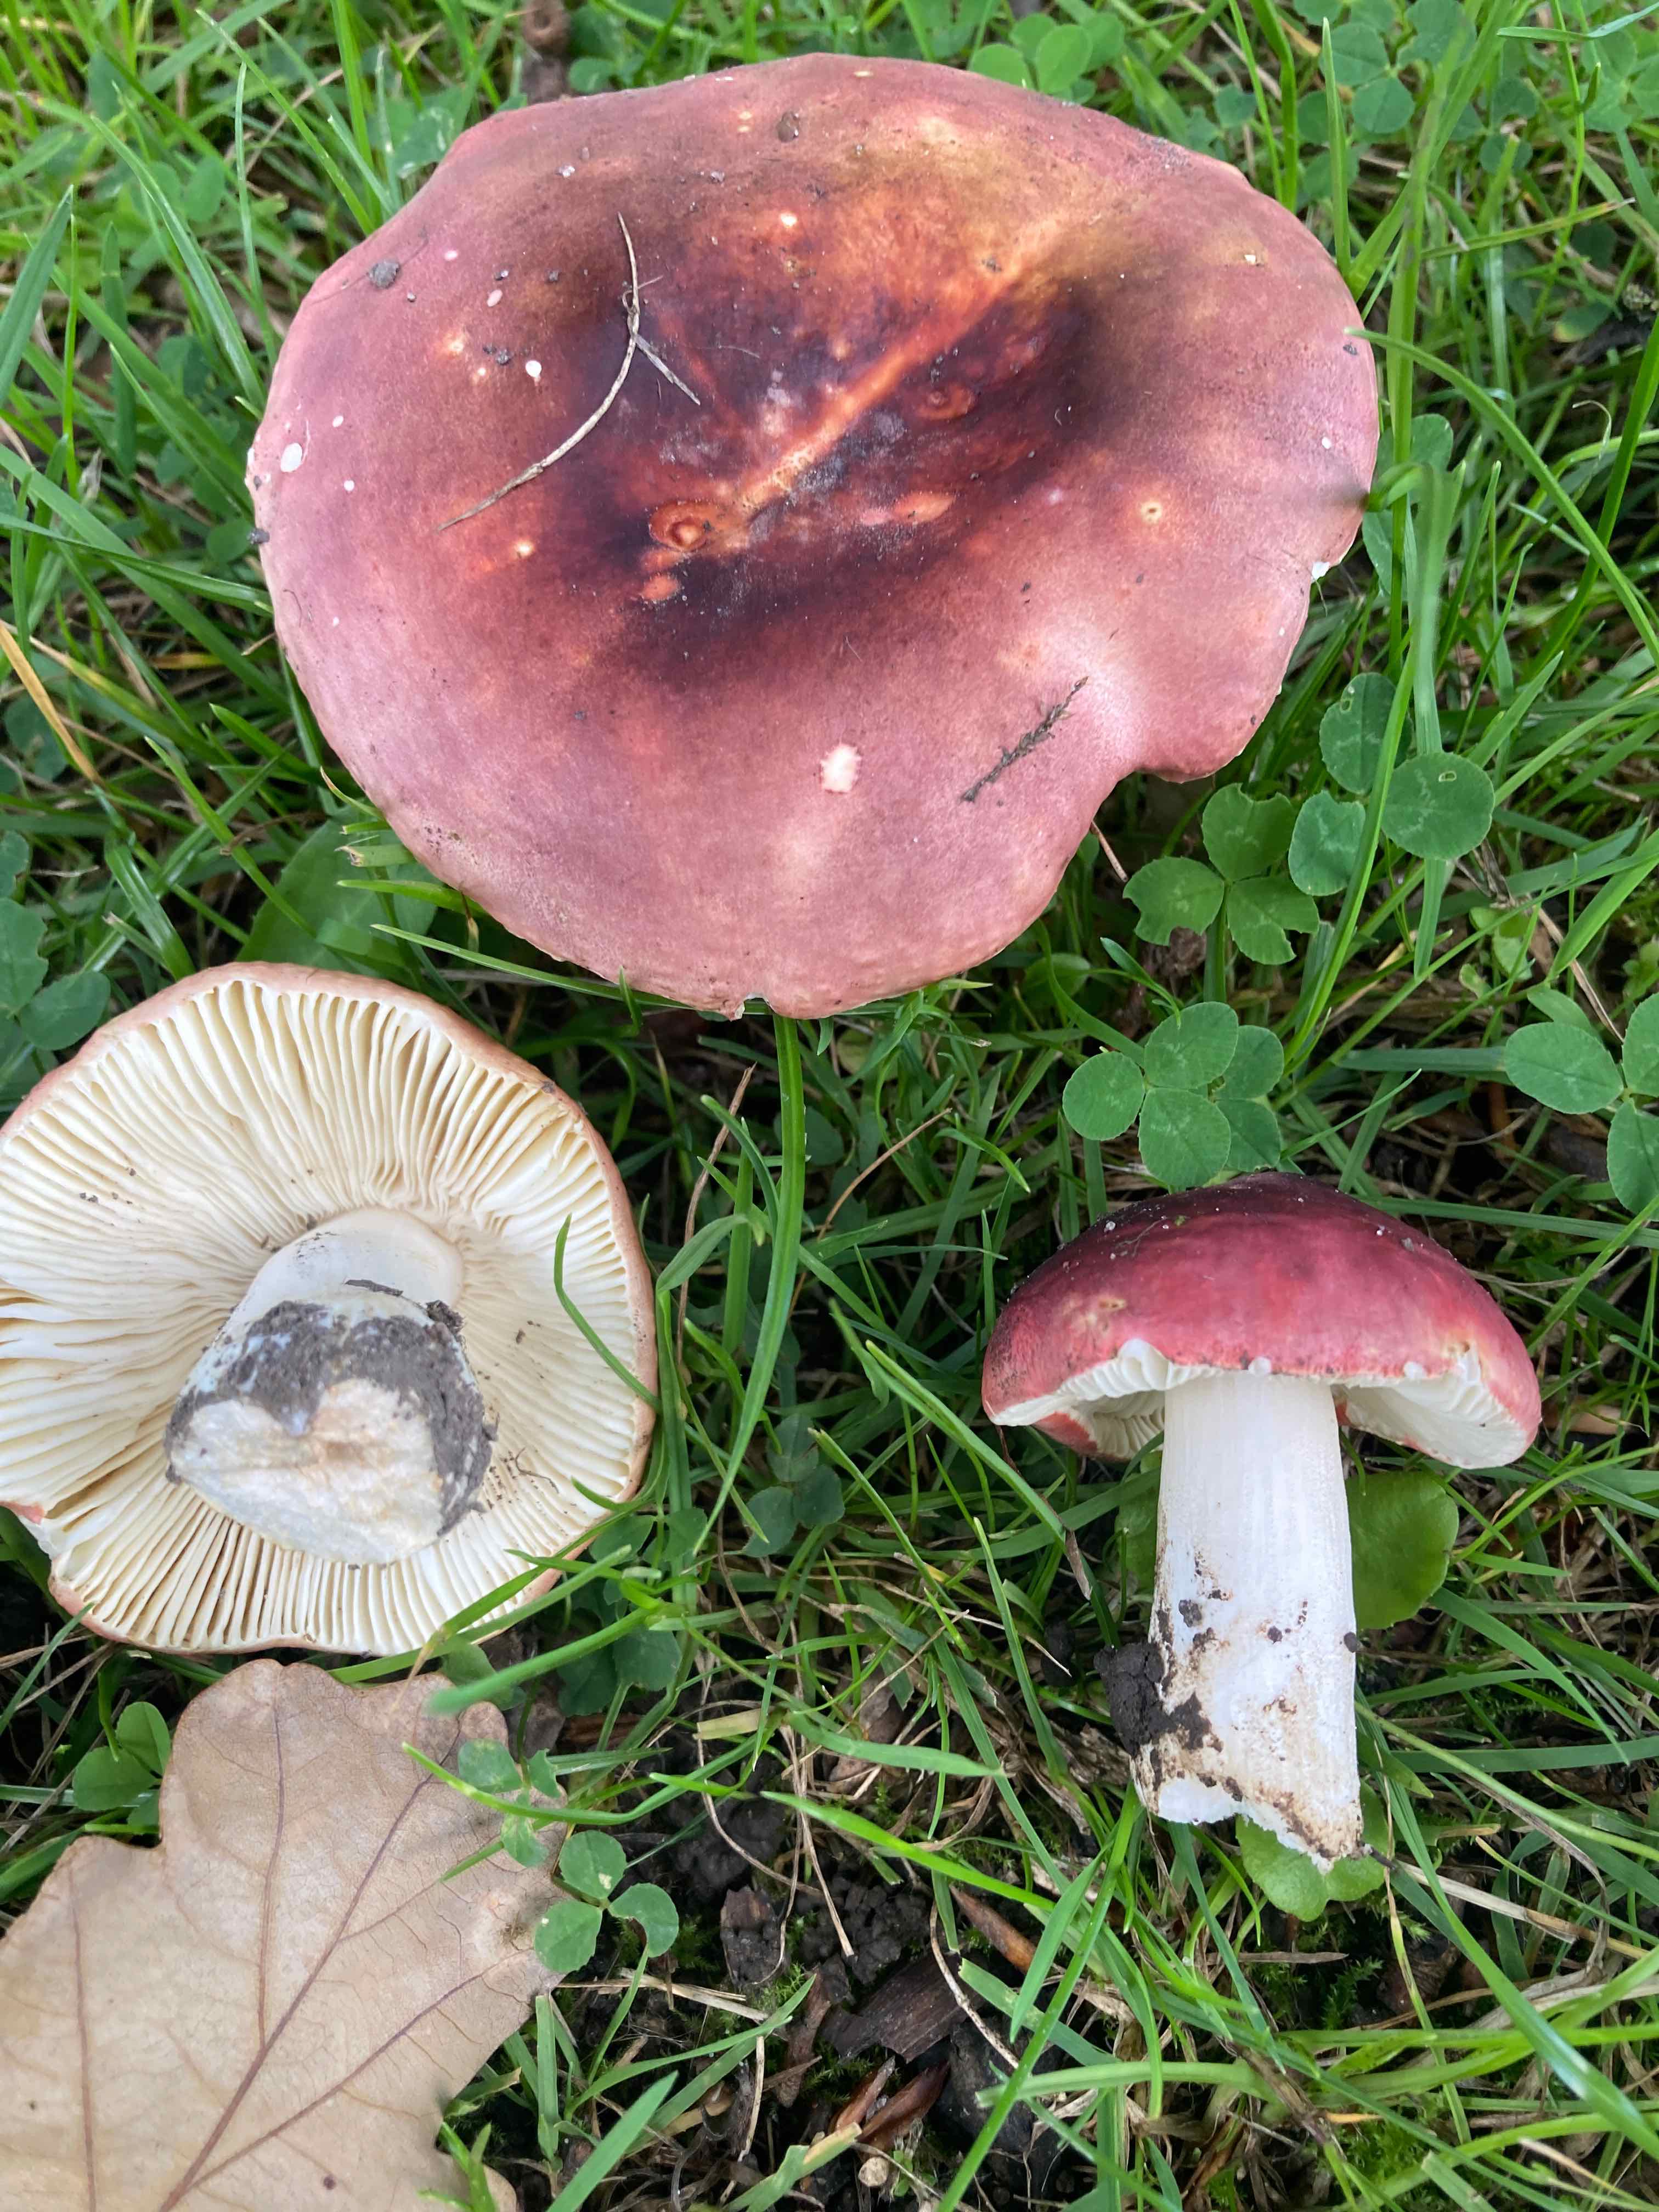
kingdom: Fungi
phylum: Basidiomycota
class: Agaricomycetes
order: Russulales
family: Russulaceae
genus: Russula
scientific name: Russula faginea
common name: bøge-skørhat
